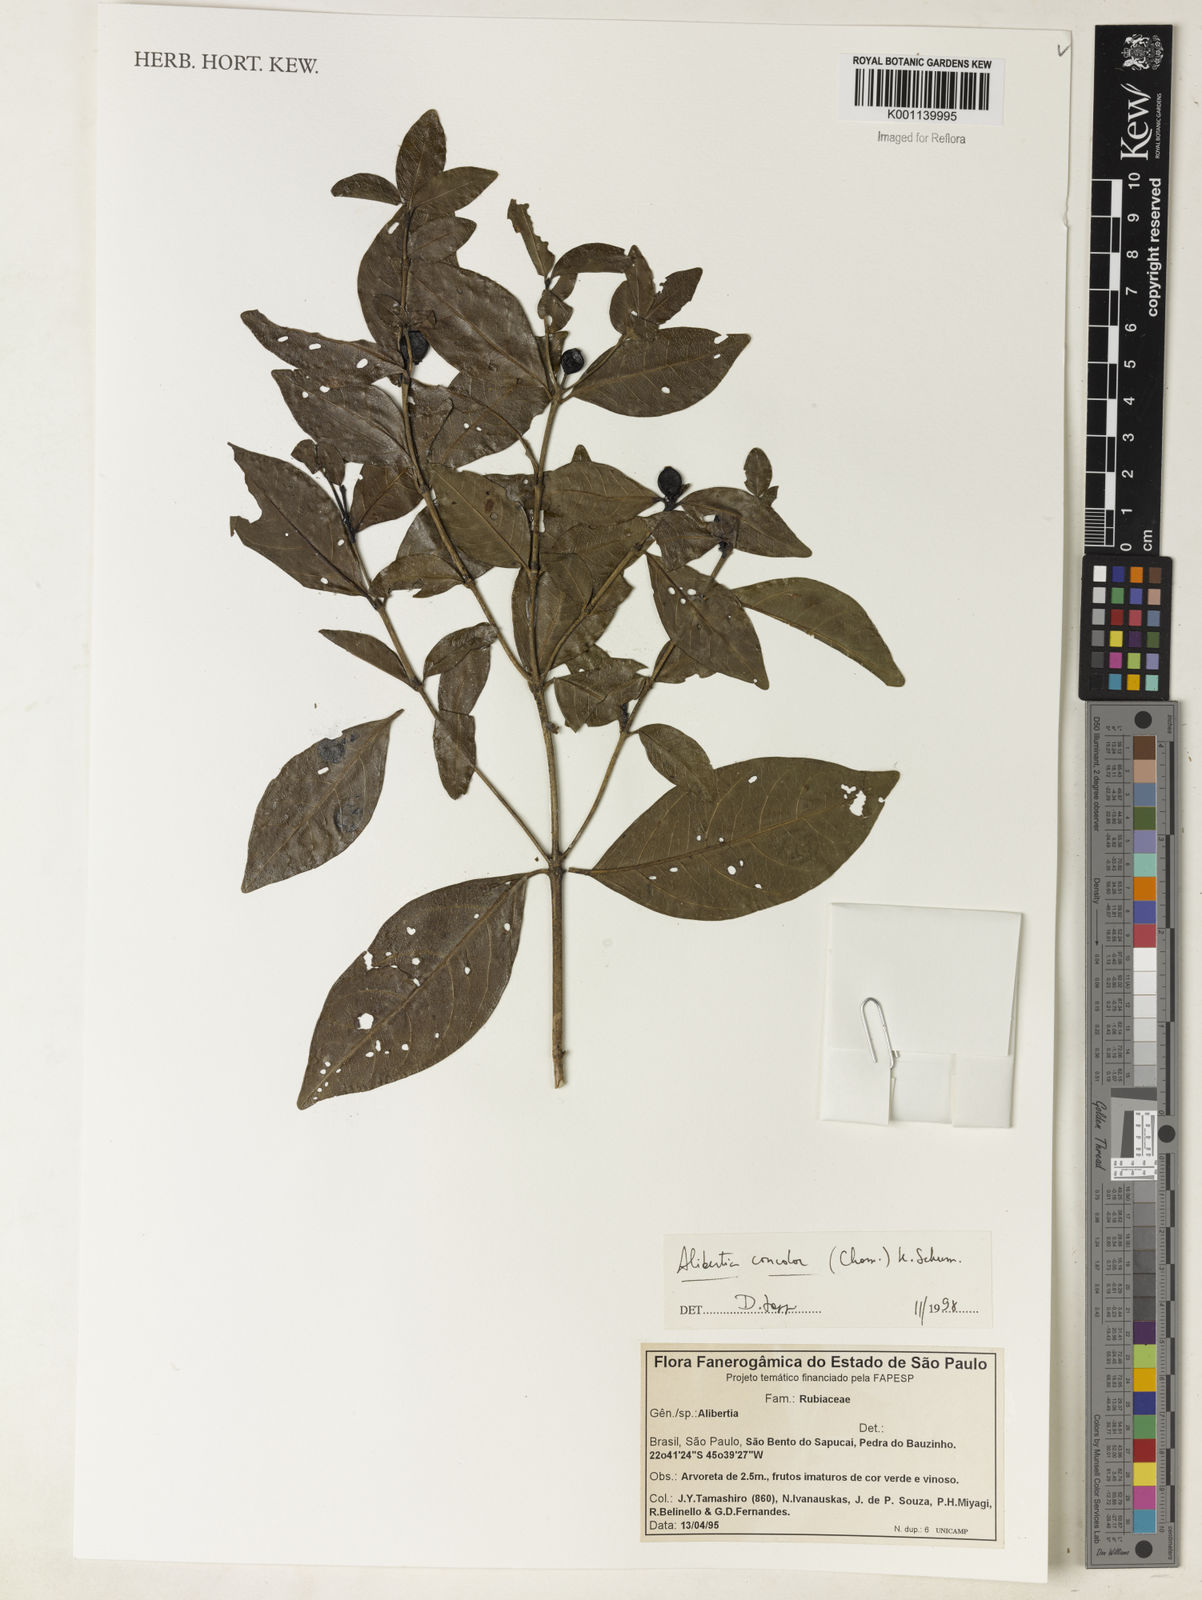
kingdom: Plantae
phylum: Tracheophyta
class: Magnoliopsida
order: Gentianales
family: Rubiaceae
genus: Cordiera
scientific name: Cordiera concolor
